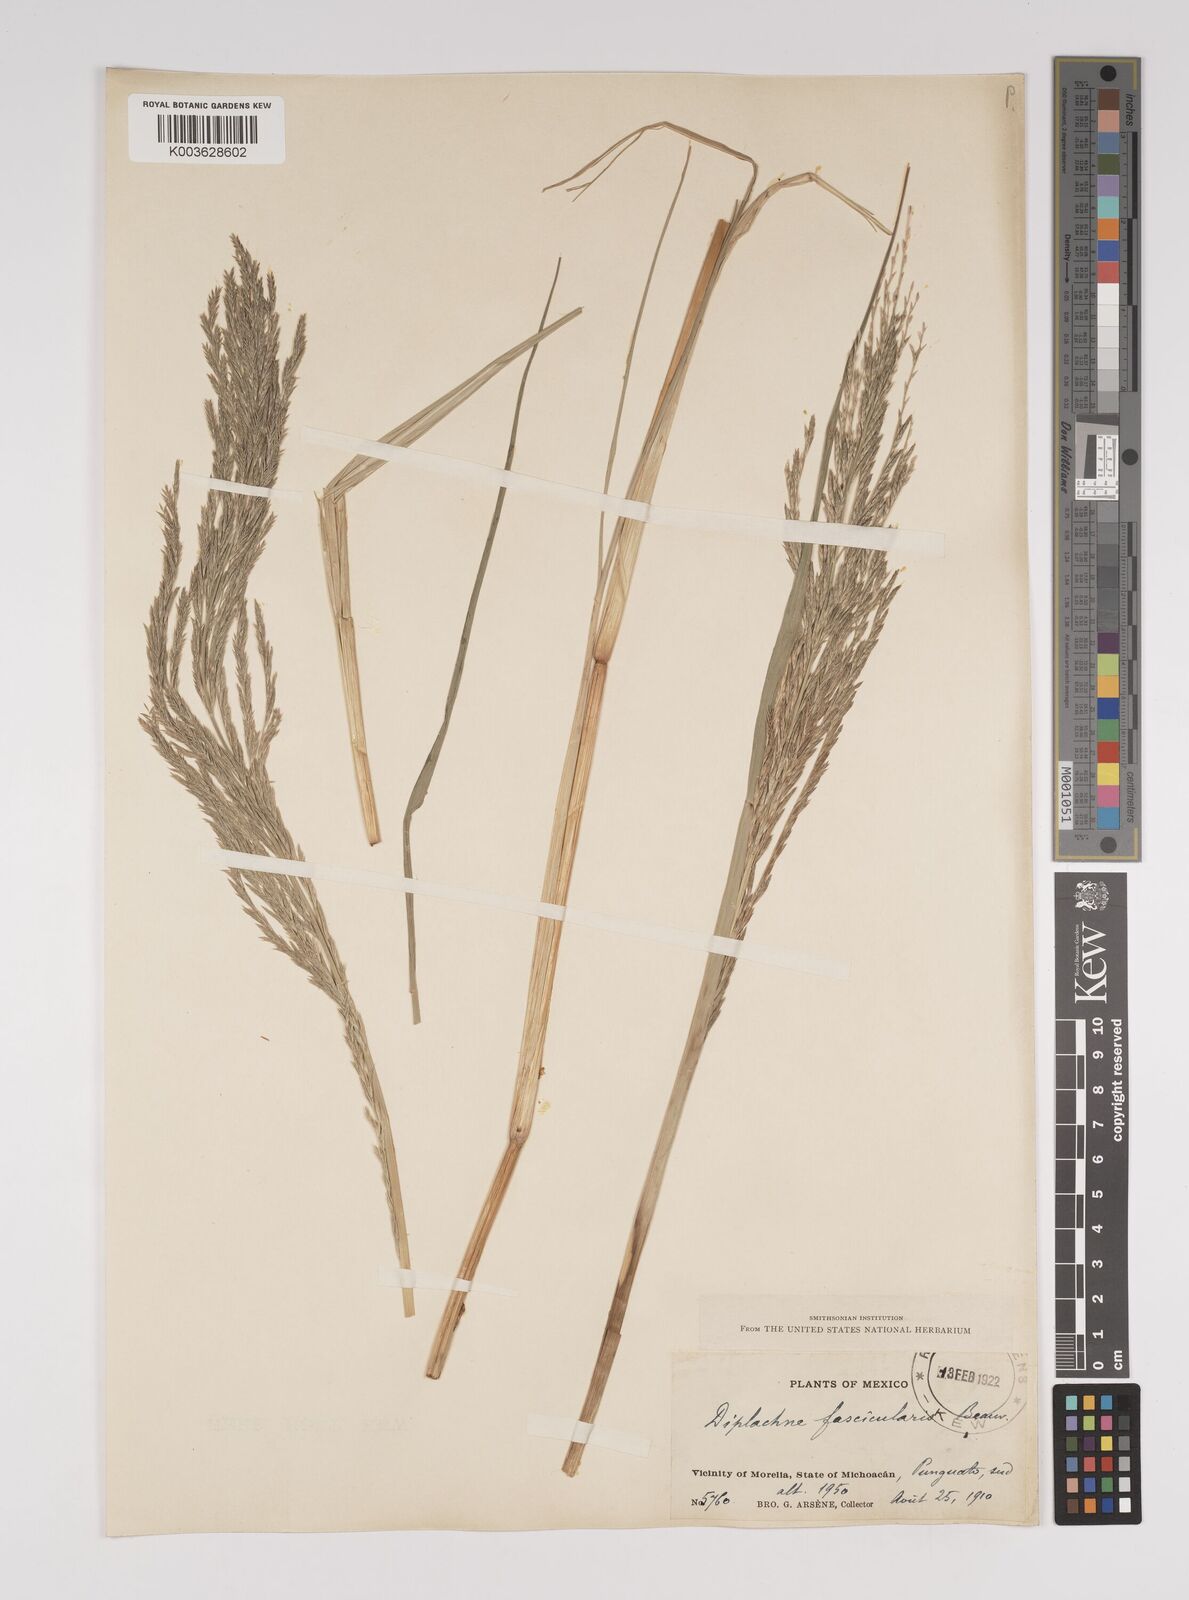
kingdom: Plantae
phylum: Tracheophyta
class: Liliopsida
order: Poales
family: Poaceae
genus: Diplachne
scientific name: Diplachne fusca
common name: Brown beetle grass
